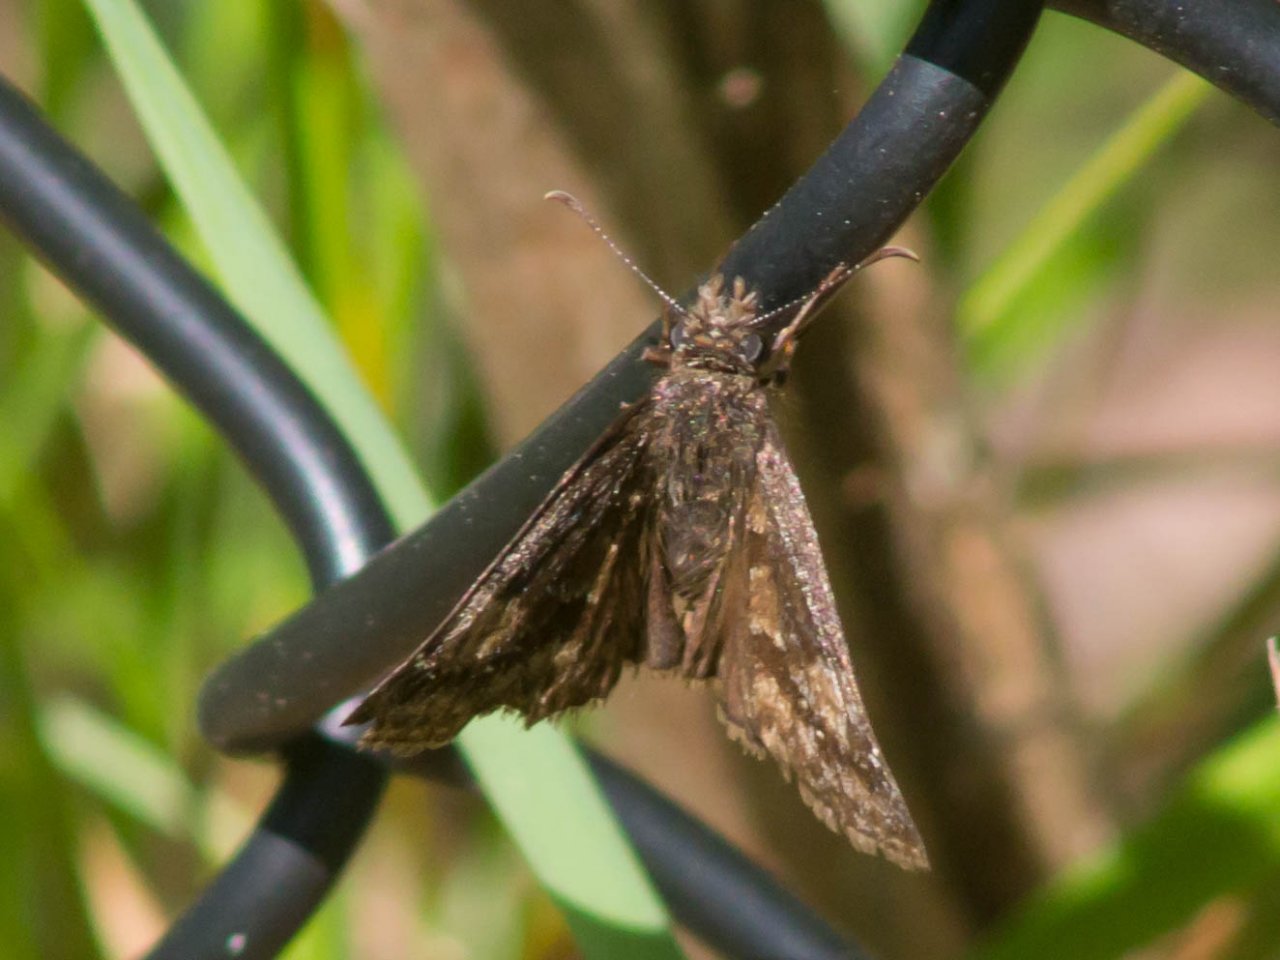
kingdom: Animalia
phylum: Arthropoda
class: Insecta
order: Lepidoptera
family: Hesperiidae
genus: Gesta
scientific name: Gesta
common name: Wild Indigo Duskywing
